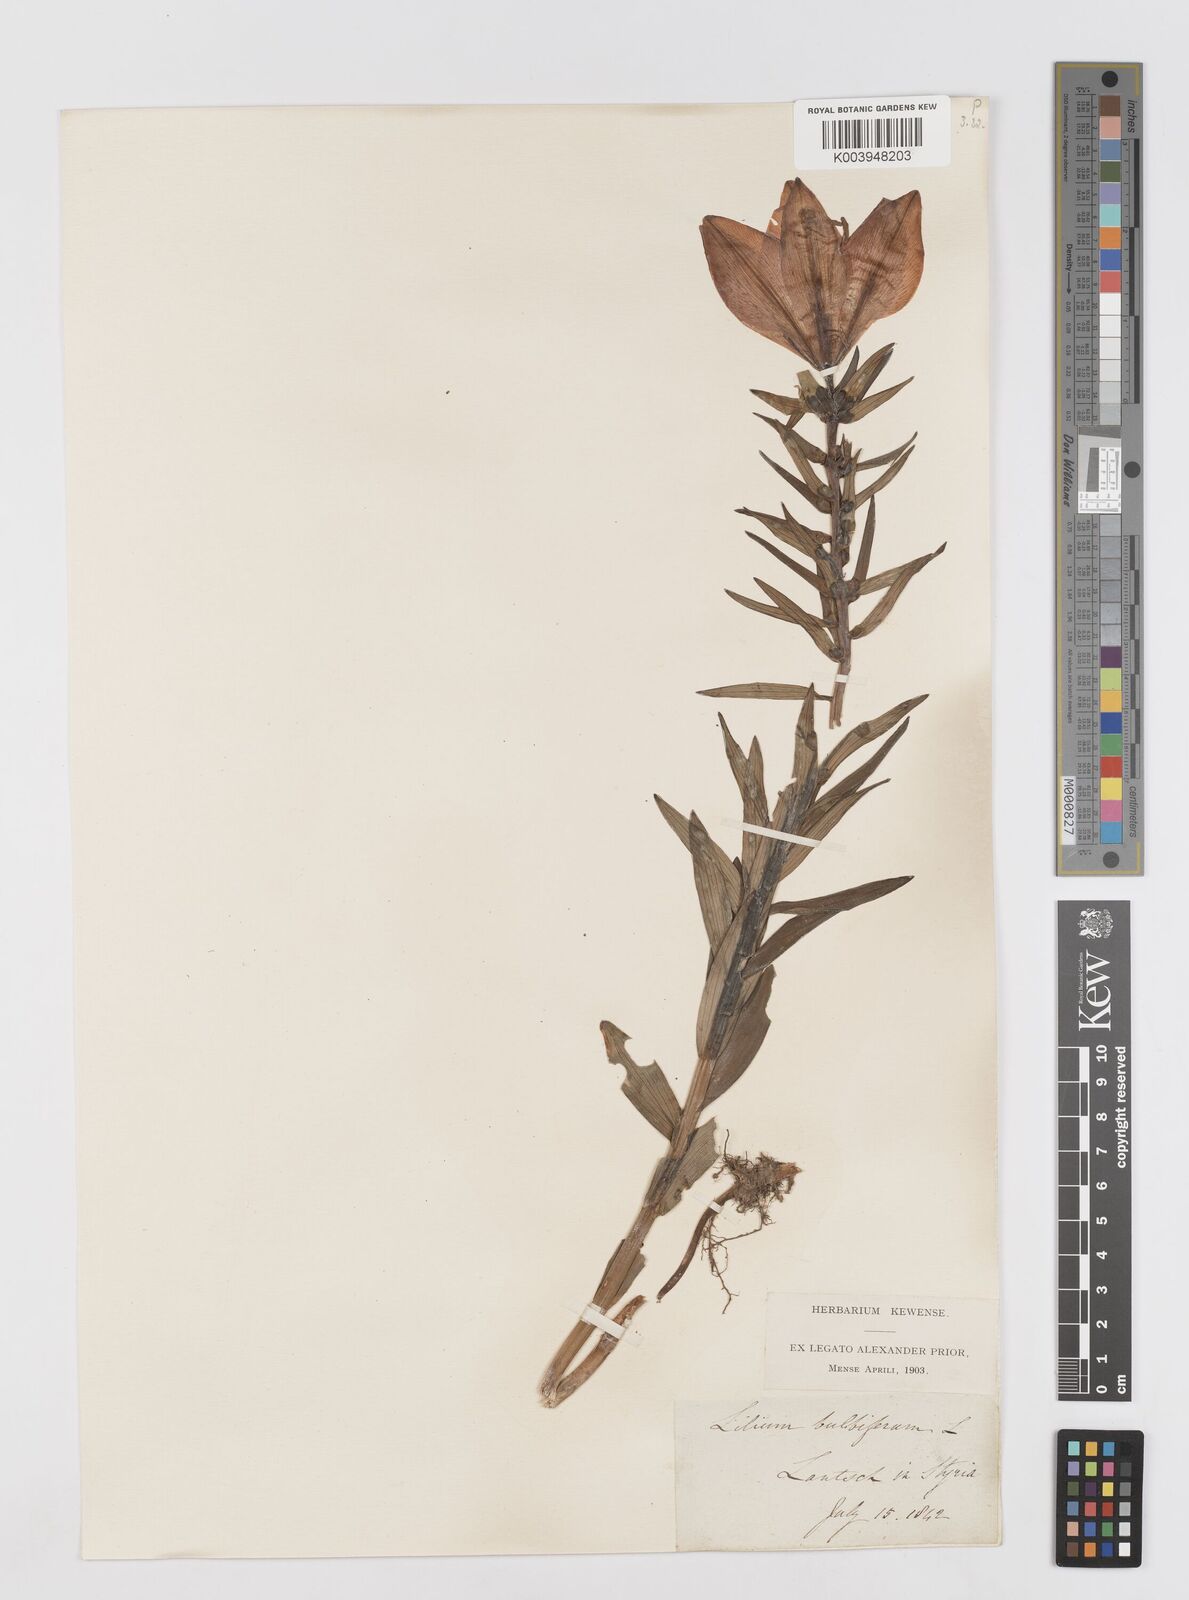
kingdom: Plantae
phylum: Tracheophyta
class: Liliopsida
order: Liliales
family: Liliaceae
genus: Lilium
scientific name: Lilium bulbiferum
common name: Orange lily
